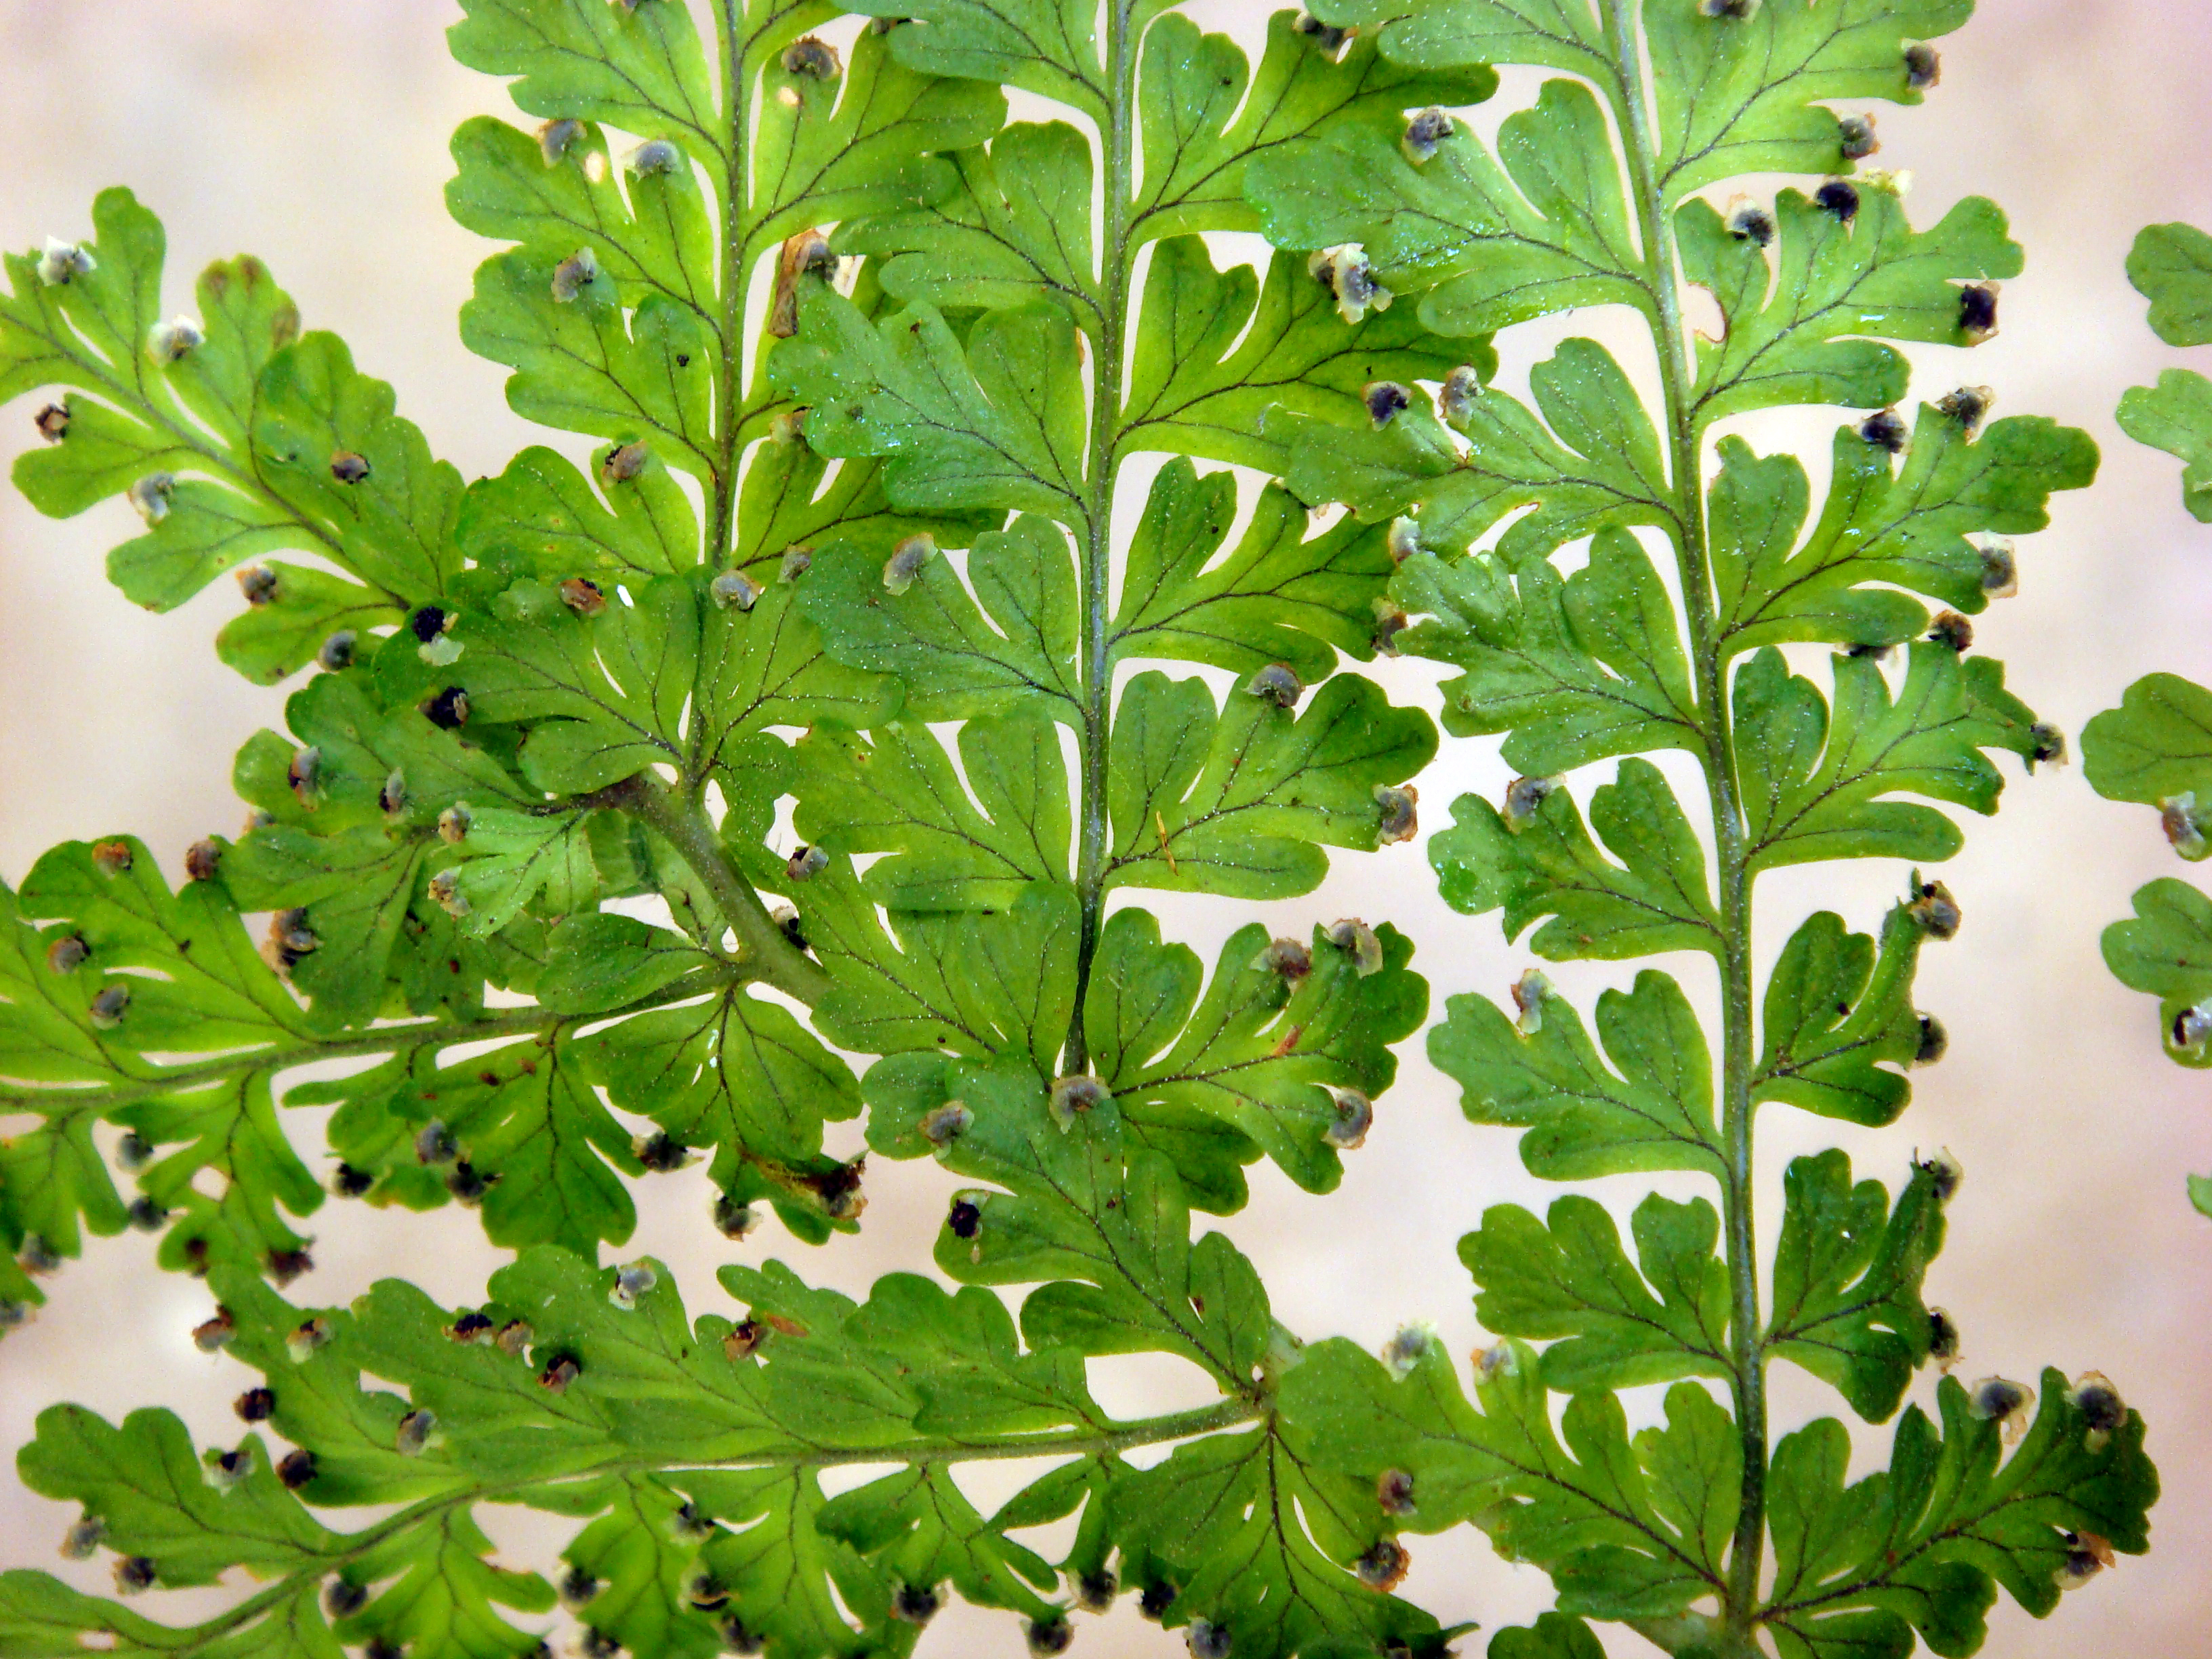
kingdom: Plantae
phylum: Tracheophyta
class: Polypodiopsida
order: Polypodiales
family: Dryopteridaceae
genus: Dryopteris
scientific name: Dryopteris raiateensis
